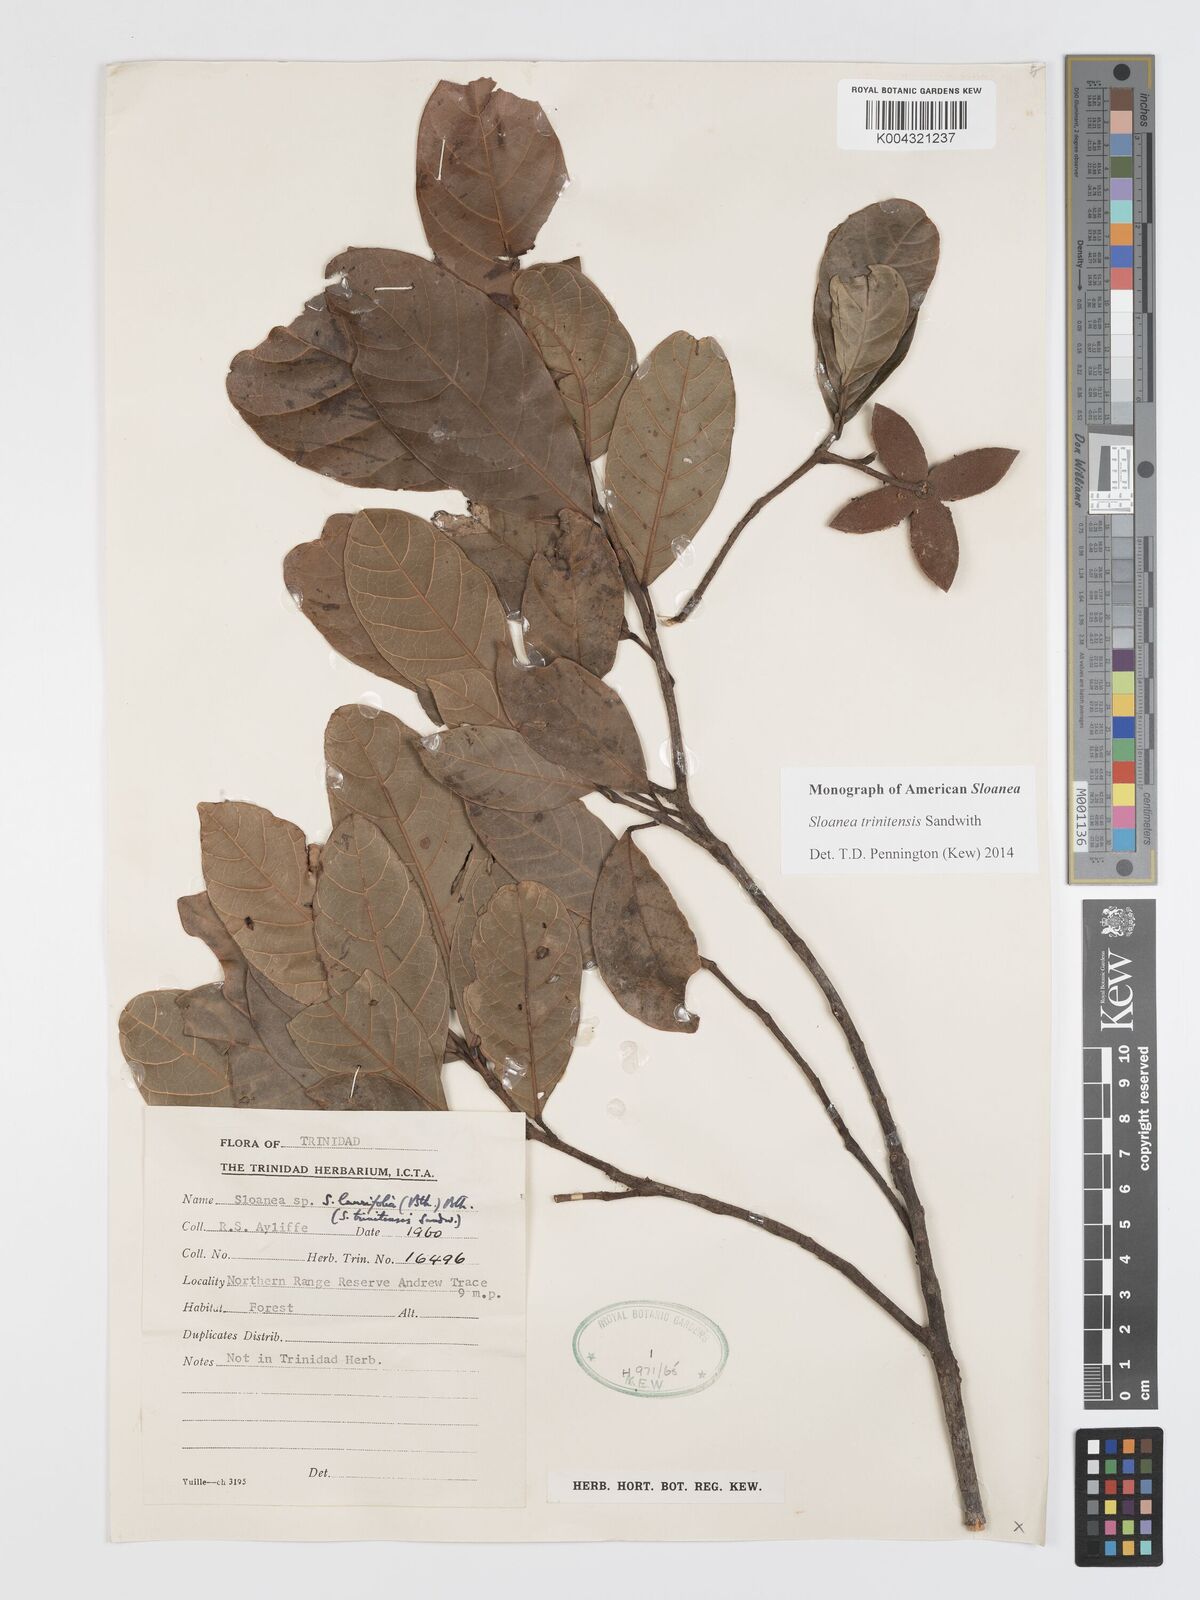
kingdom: Plantae
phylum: Tracheophyta
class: Magnoliopsida
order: Oxalidales
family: Elaeocarpaceae
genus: Sloanea
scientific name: Sloanea laurifolia
